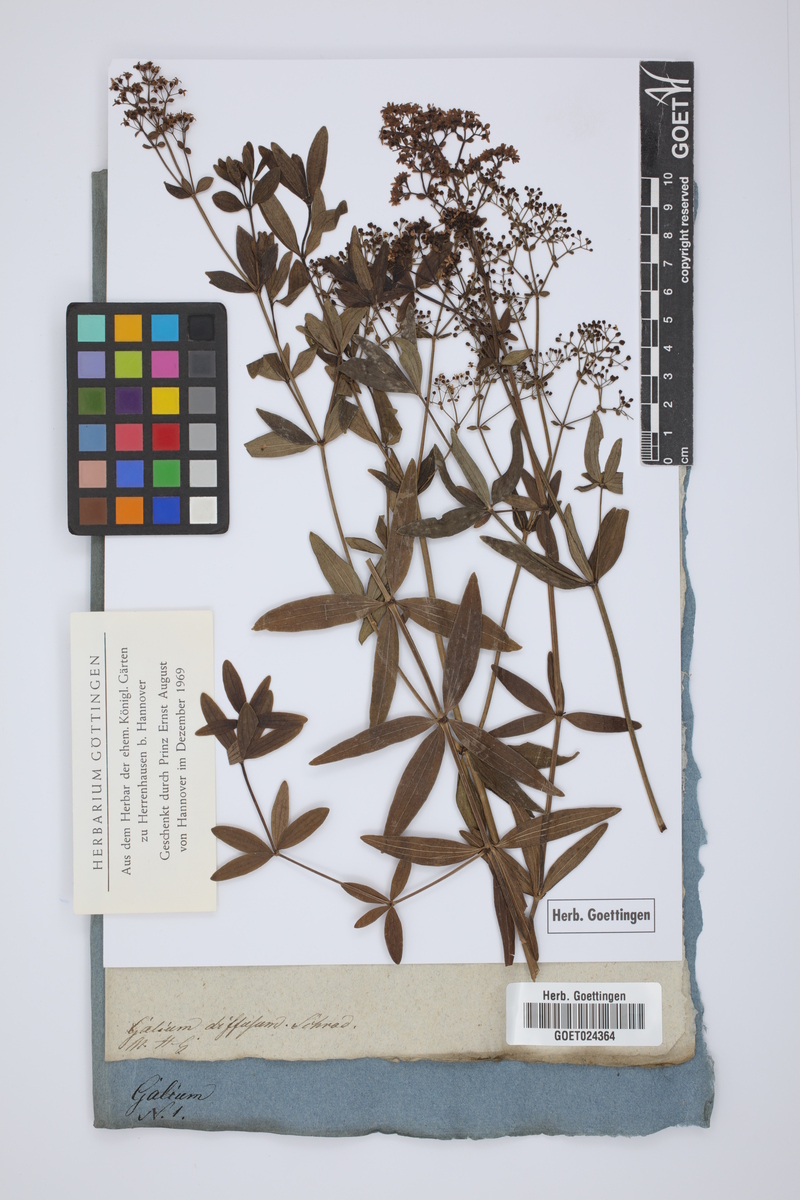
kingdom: Plantae
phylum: Tracheophyta
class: Magnoliopsida
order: Gentianales
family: Rubiaceae
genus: Galium
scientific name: Galium boreale
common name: Northern bedstraw
